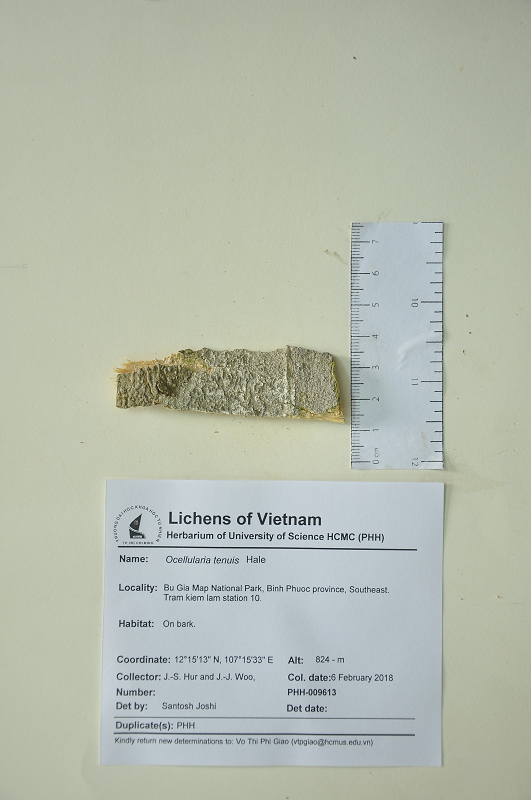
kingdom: Fungi
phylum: Ascomycota
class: Lecanoromycetes
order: Ostropales
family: Graphidaceae
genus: Clandestinotrema
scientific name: Clandestinotrema tenue
